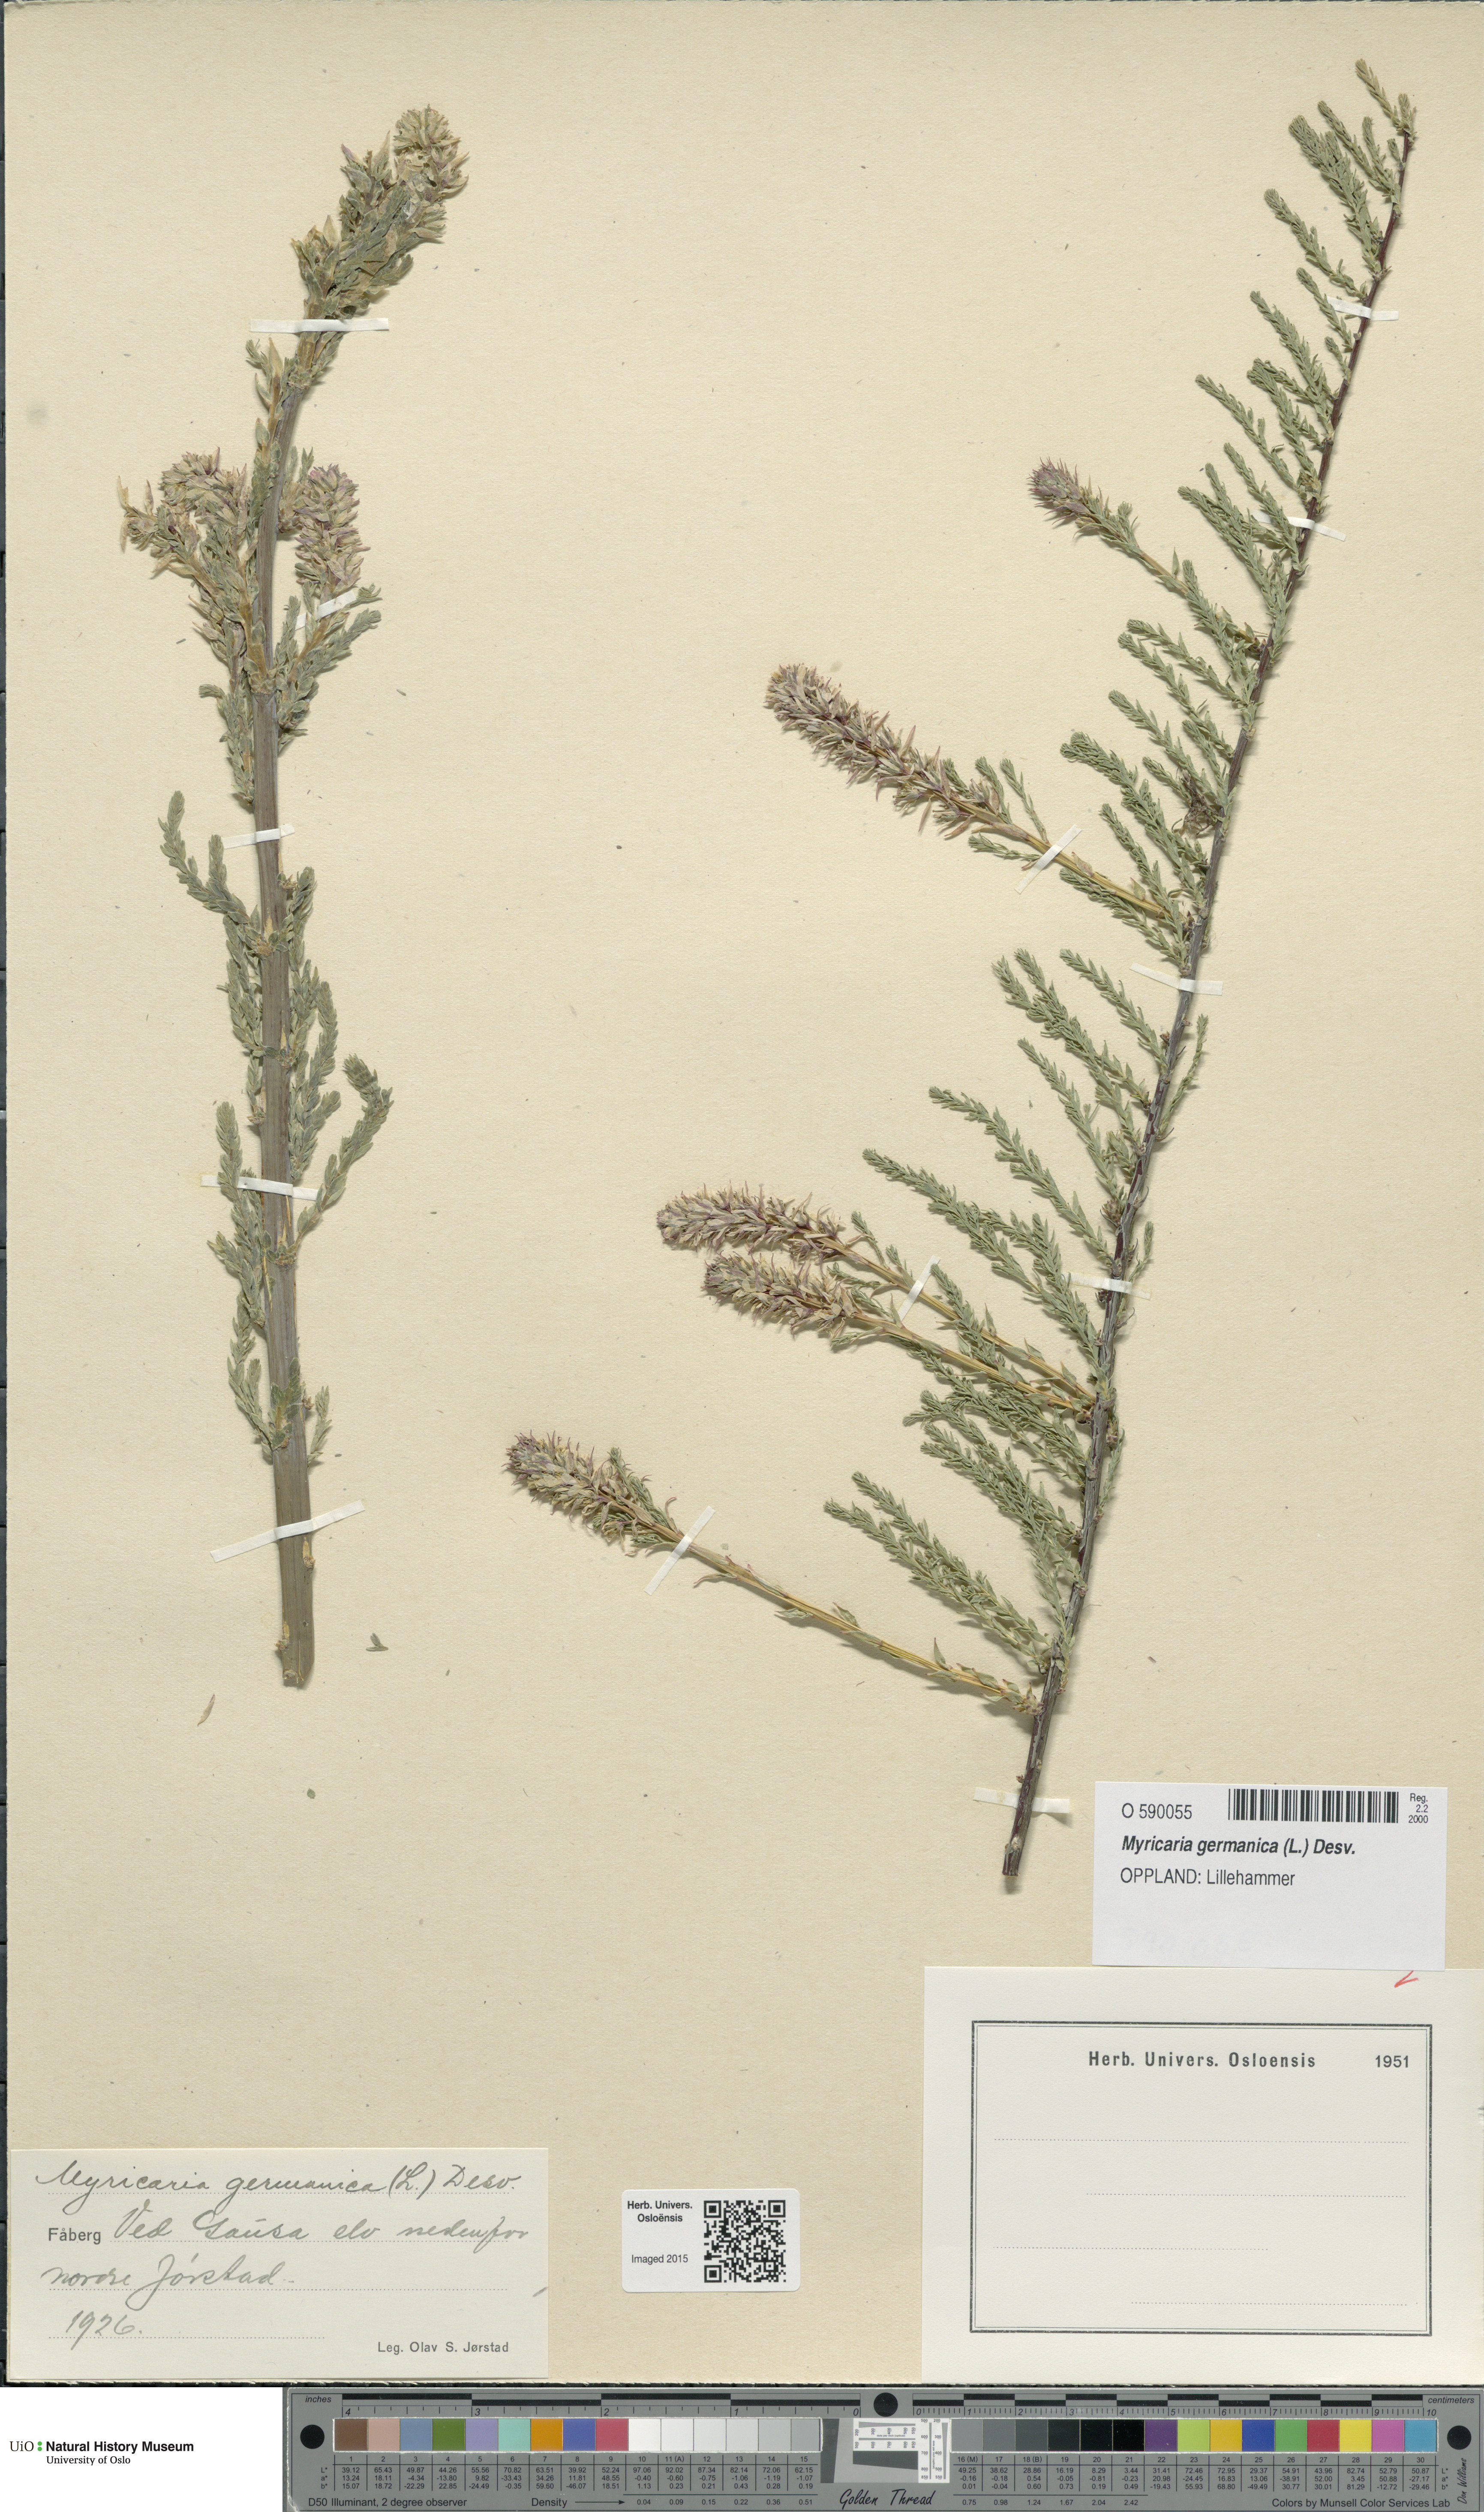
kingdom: Plantae
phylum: Tracheophyta
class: Magnoliopsida
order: Caryophyllales
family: Tamaricaceae
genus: Myricaria
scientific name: Myricaria germanica
